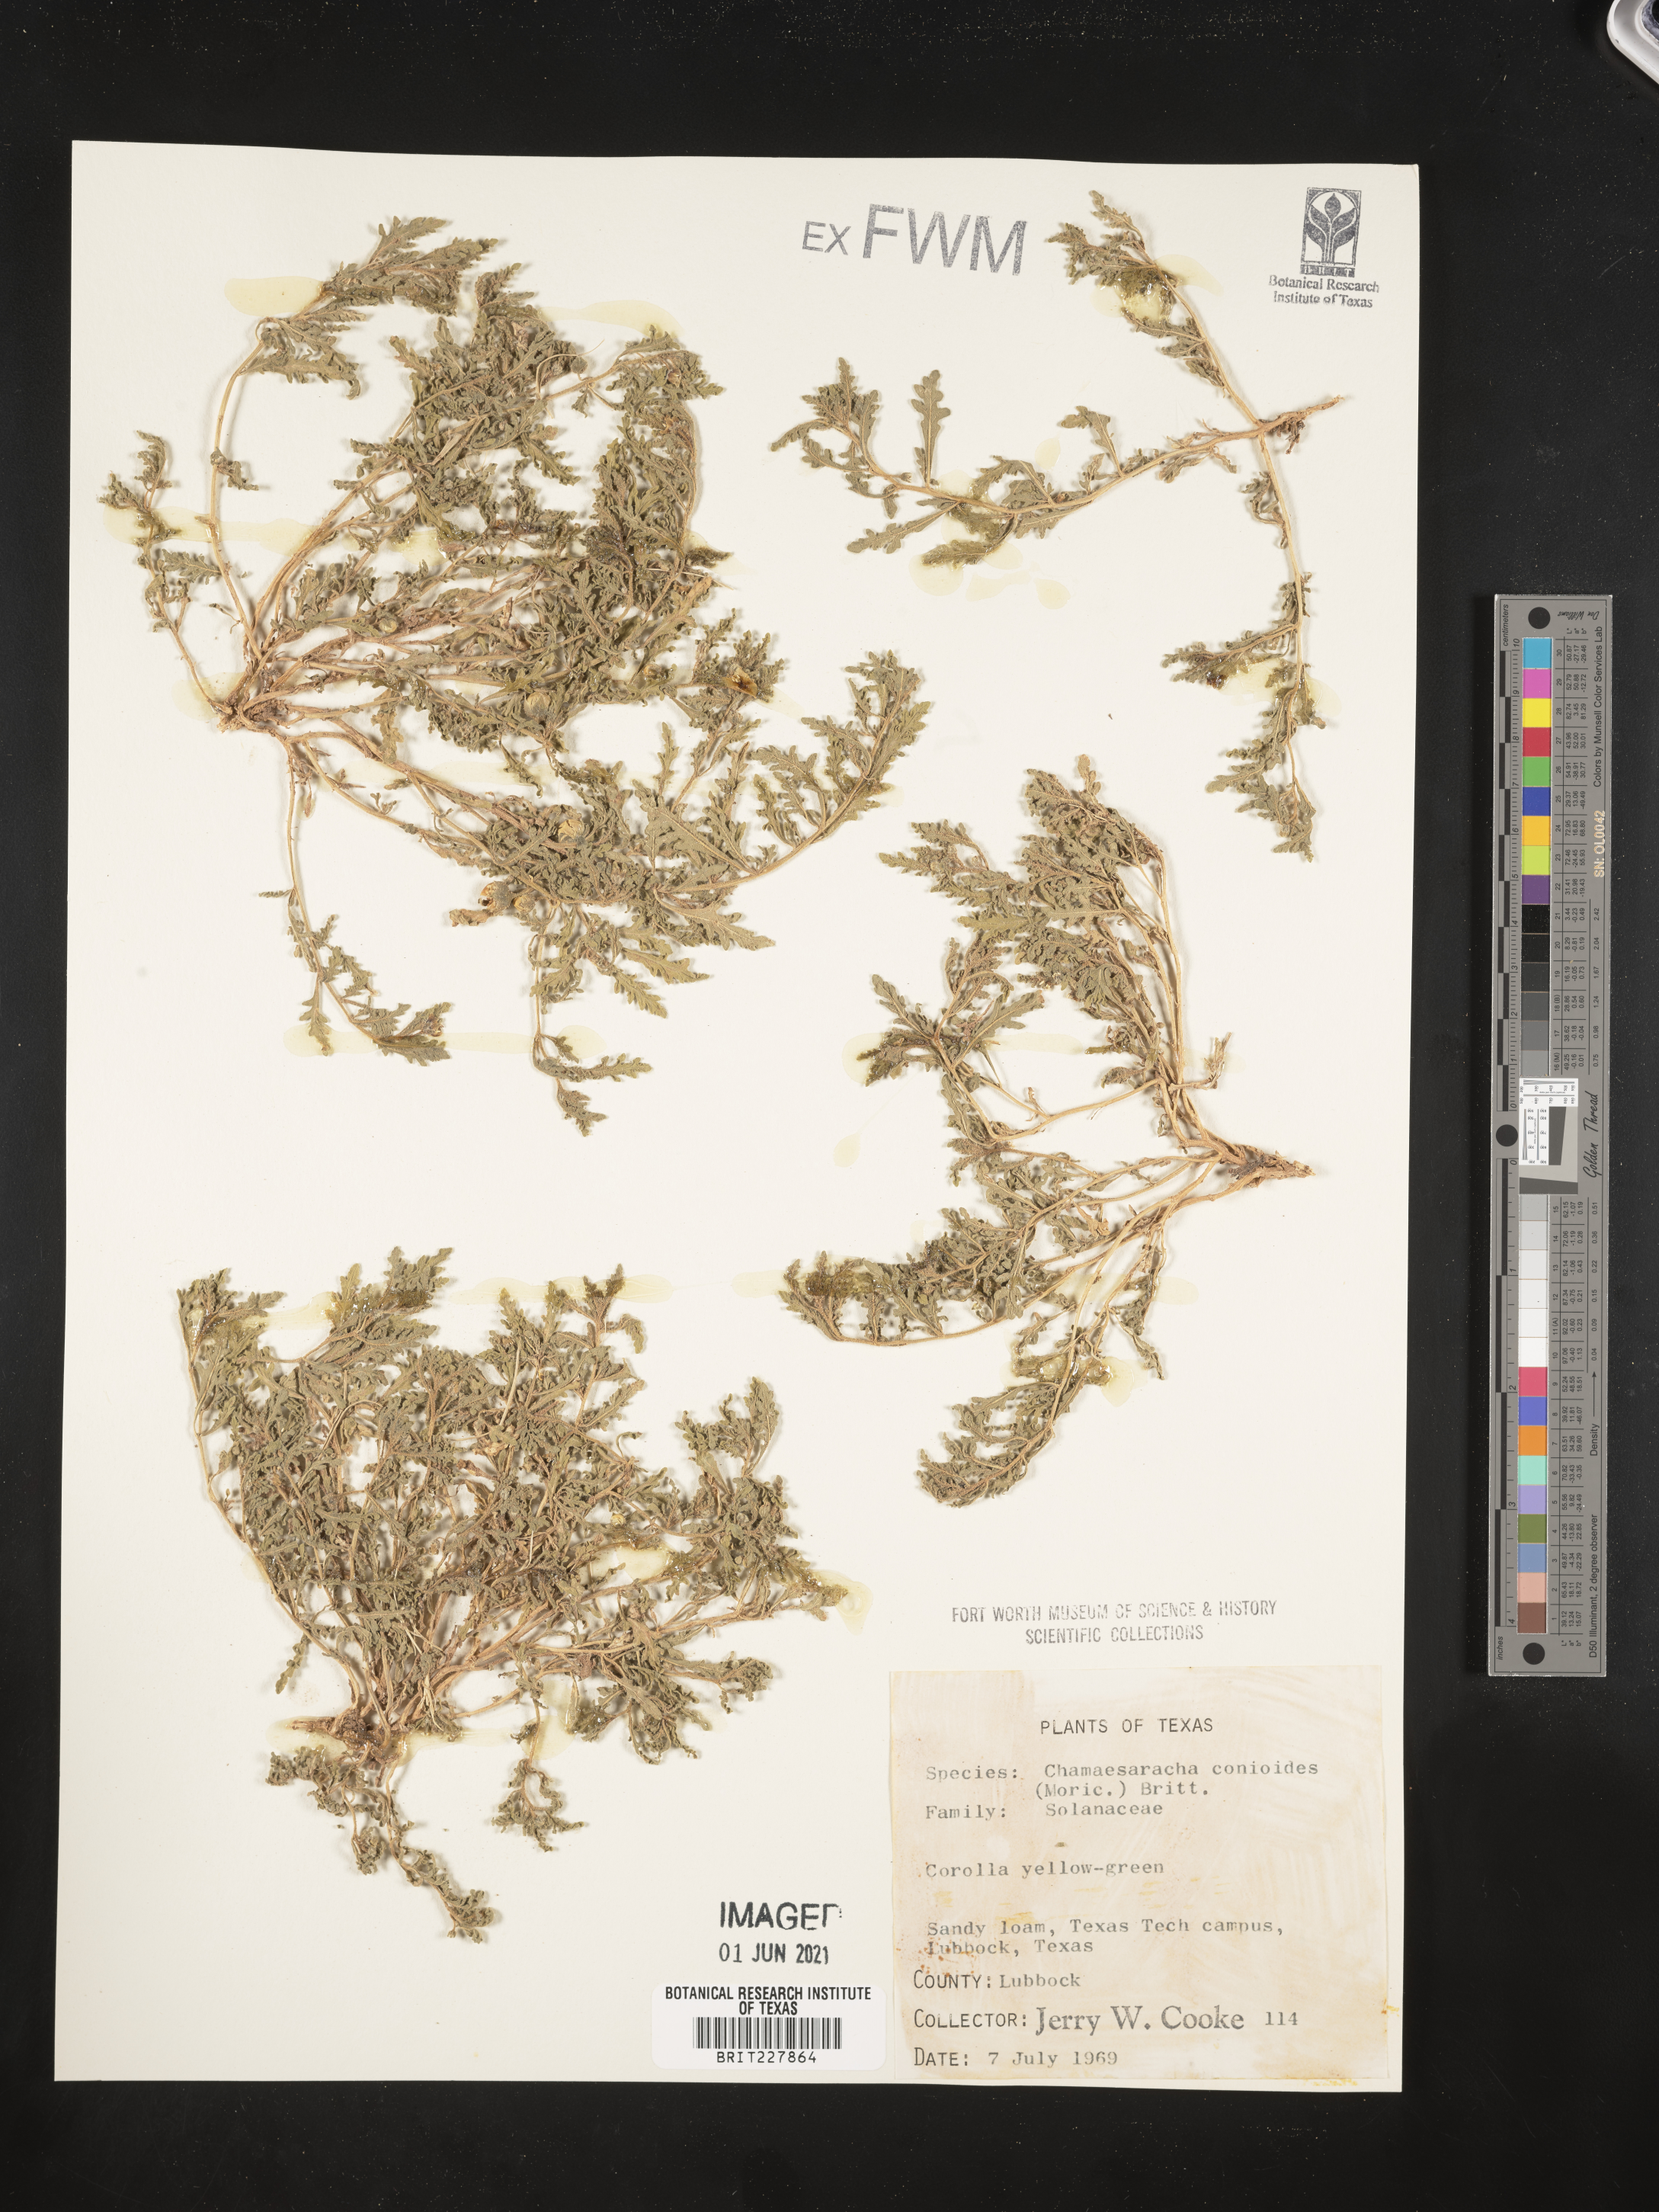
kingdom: Plantae
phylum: Tracheophyta
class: Magnoliopsida
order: Solanales
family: Solanaceae
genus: Chamaesaracha
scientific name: Chamaesaracha conioides
